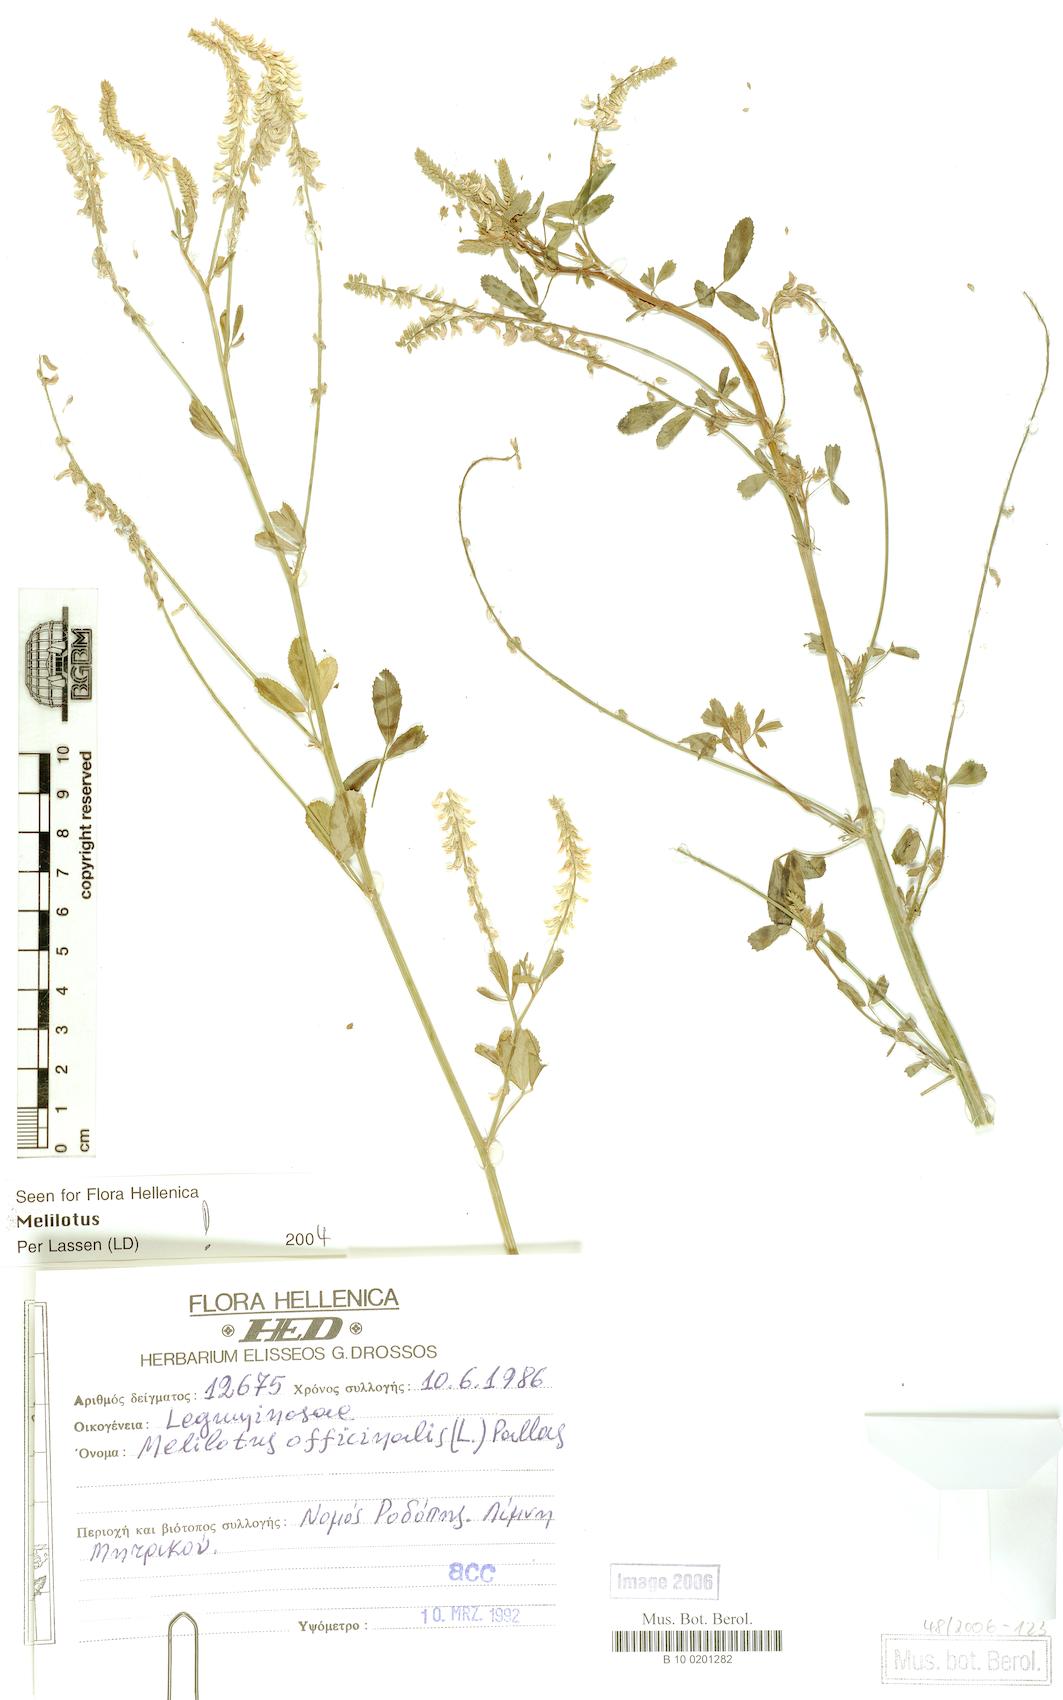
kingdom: Plantae
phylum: Tracheophyta
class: Magnoliopsida
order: Fabales
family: Fabaceae
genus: Melilotus
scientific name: Melilotus officinalis
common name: Sweetclover
